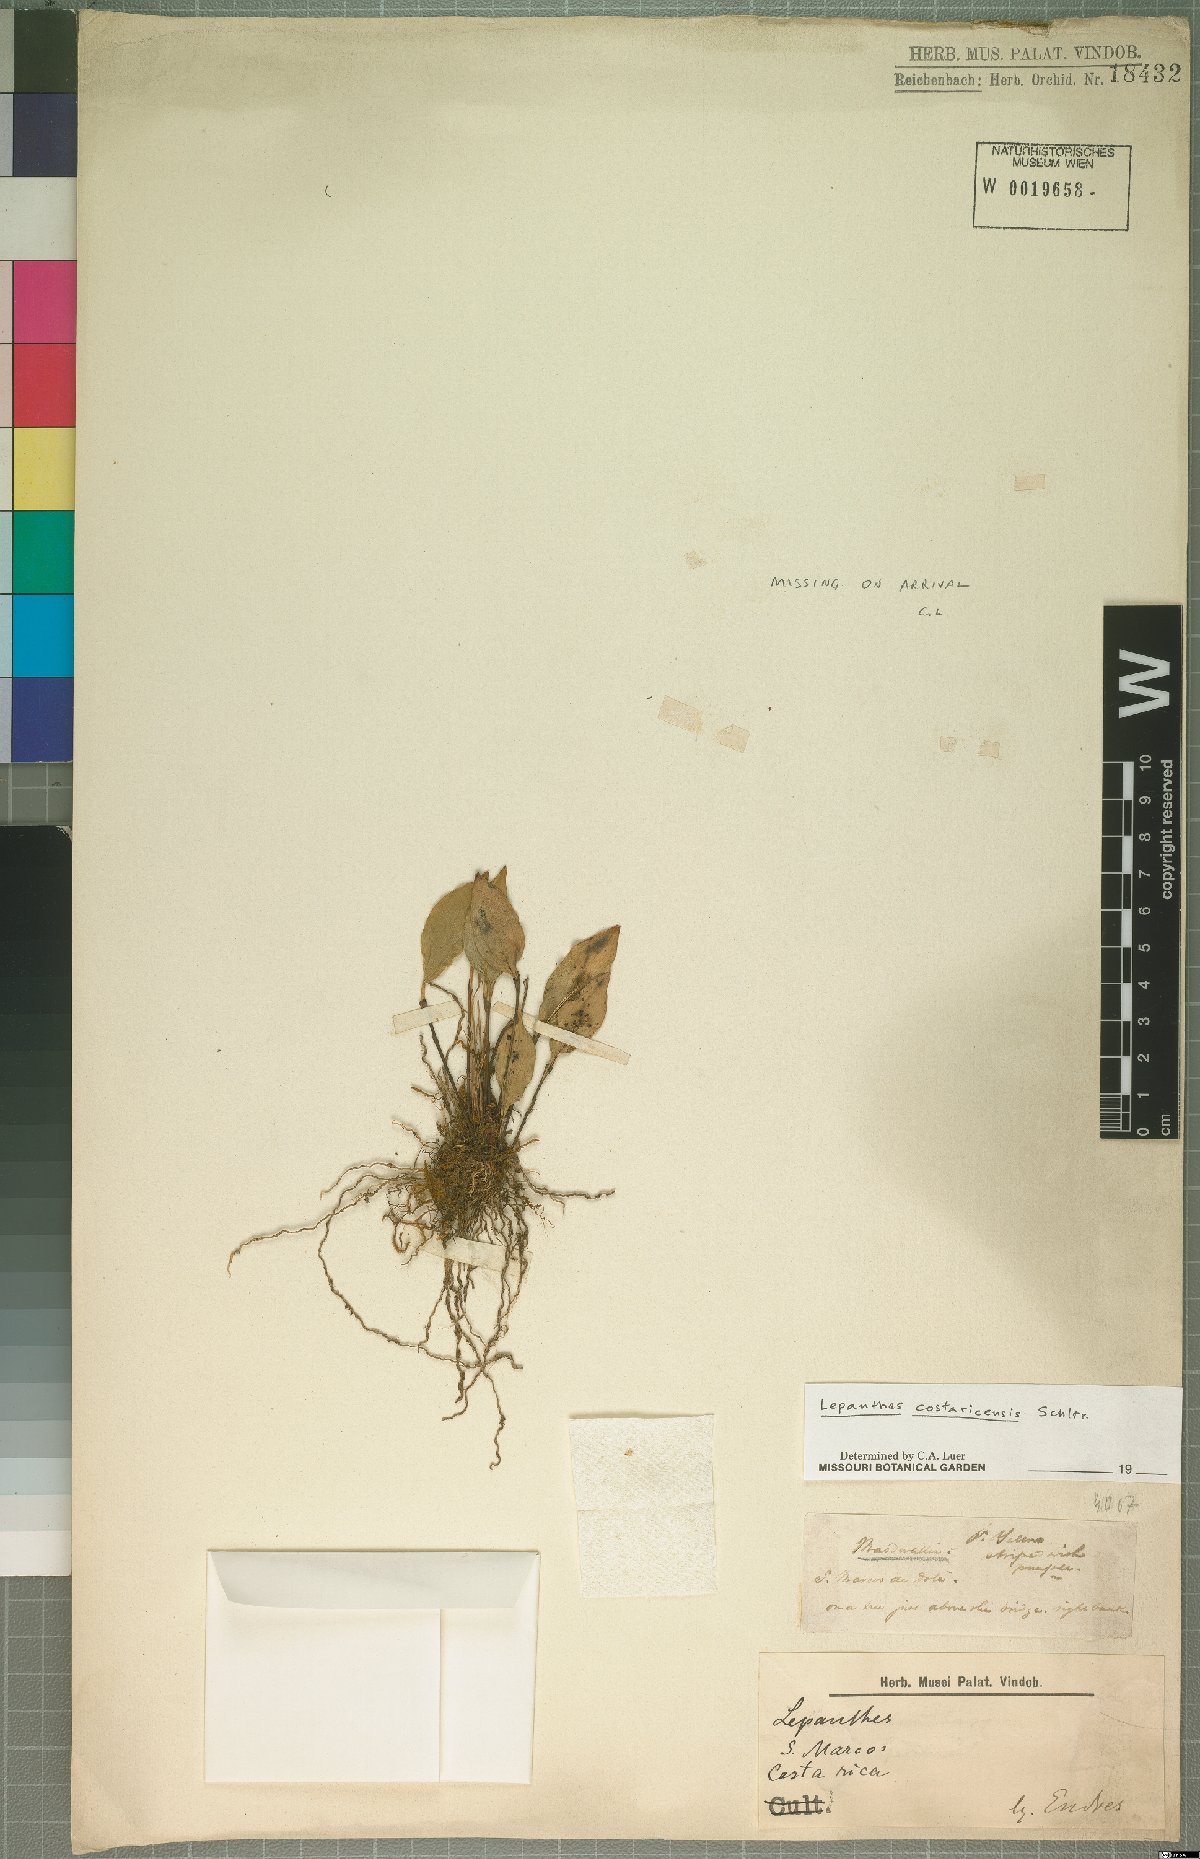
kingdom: Plantae
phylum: Tracheophyta
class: Liliopsida
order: Asparagales
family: Orchidaceae
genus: Lepanthes
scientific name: Lepanthes costaricensis
